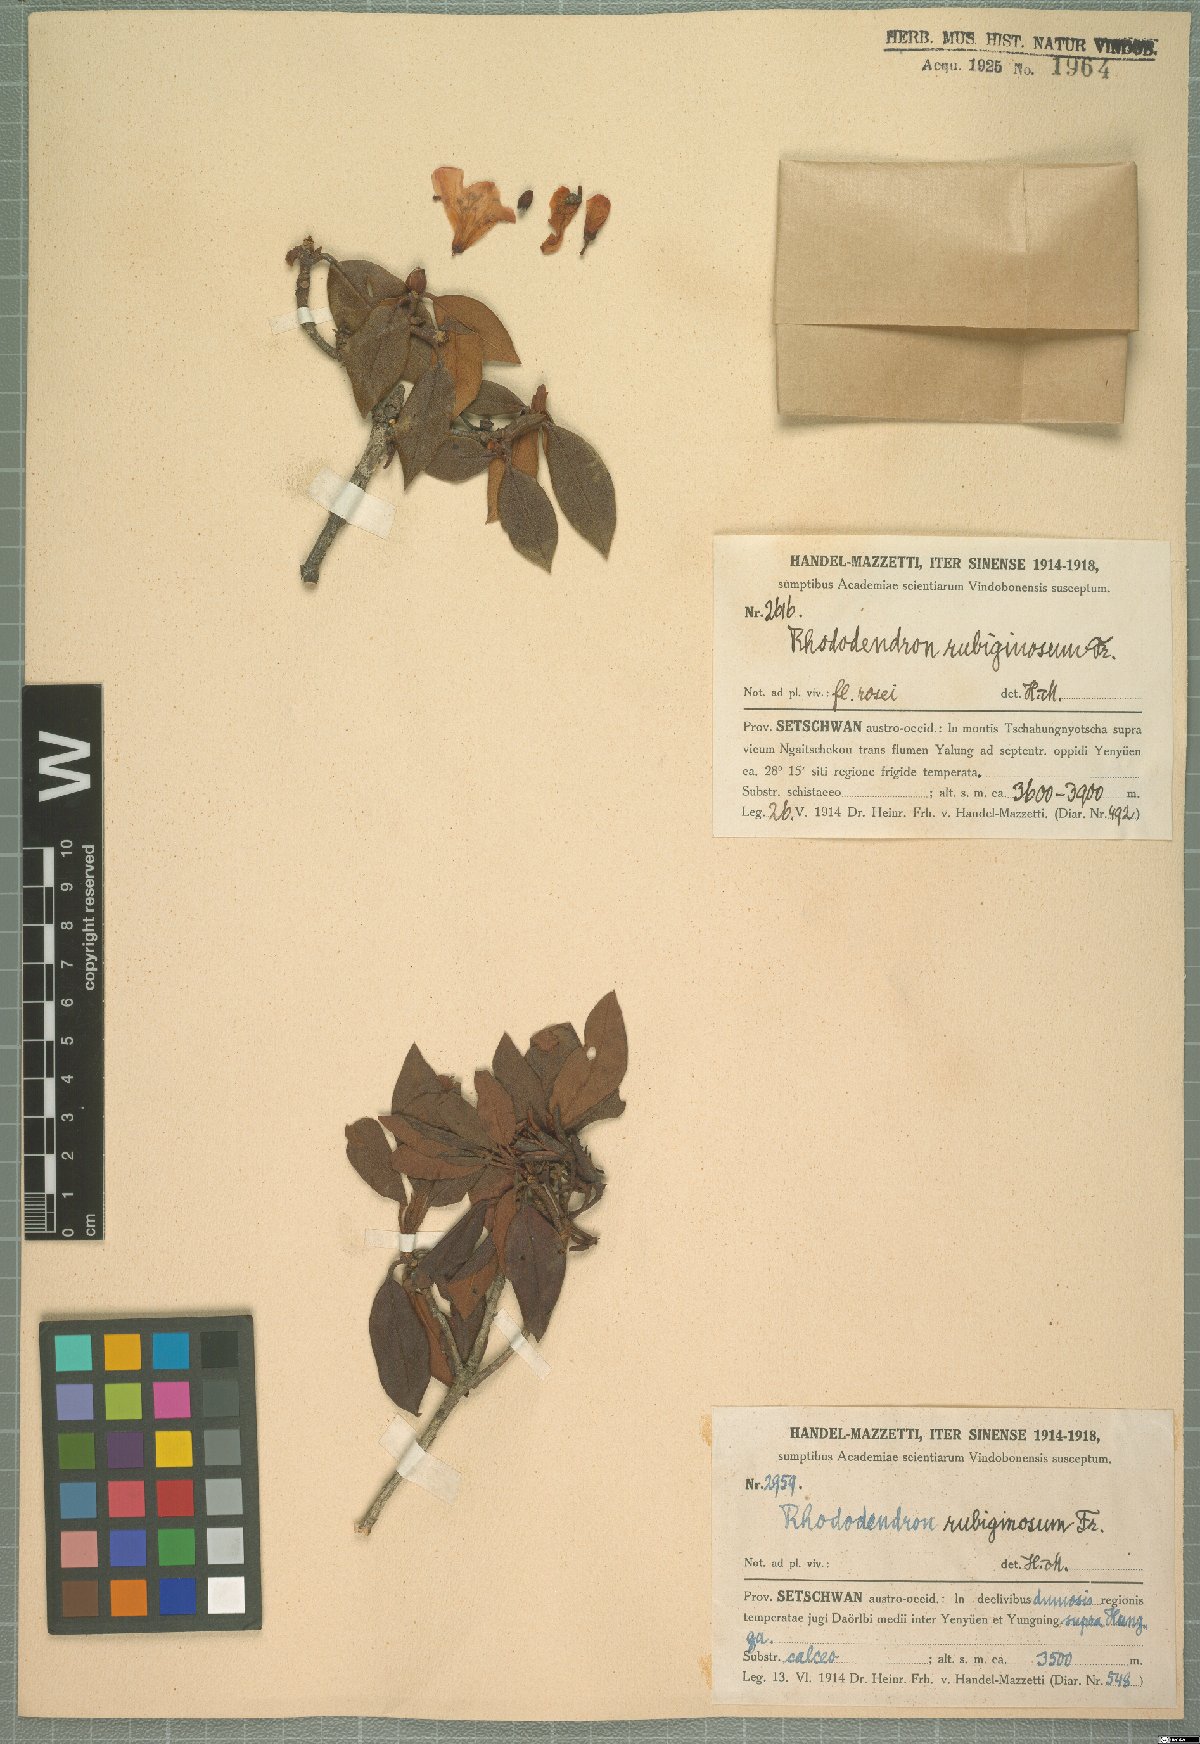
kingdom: Plantae
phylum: Tracheophyta
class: Magnoliopsida
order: Ericales
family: Ericaceae
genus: Rhododendron
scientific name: Rhododendron rubiginosum
